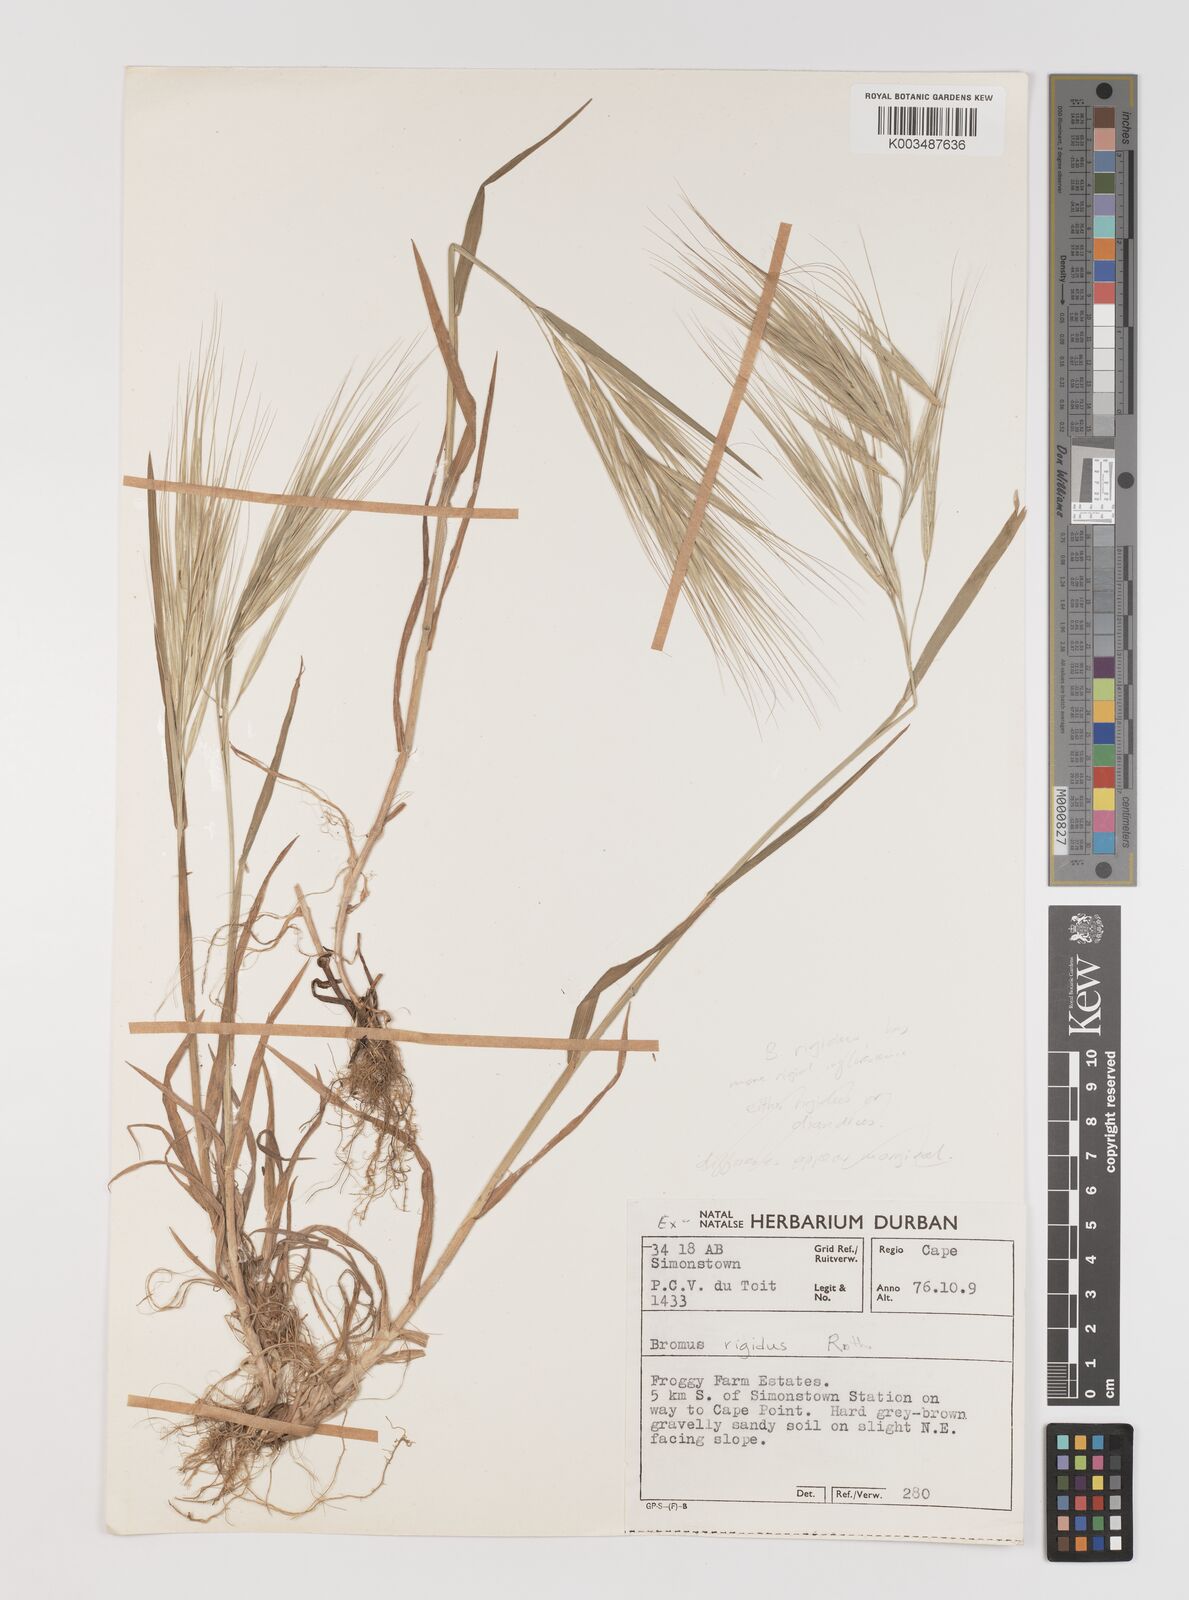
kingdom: Plantae
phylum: Tracheophyta
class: Liliopsida
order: Poales
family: Poaceae
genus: Bromus
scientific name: Bromus diandrus
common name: Ripgut brome
